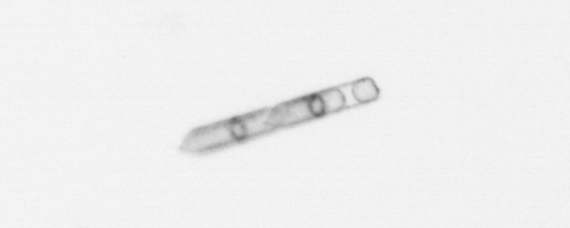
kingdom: Chromista
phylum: Ochrophyta
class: Bacillariophyceae
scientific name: Bacillariophyceae
